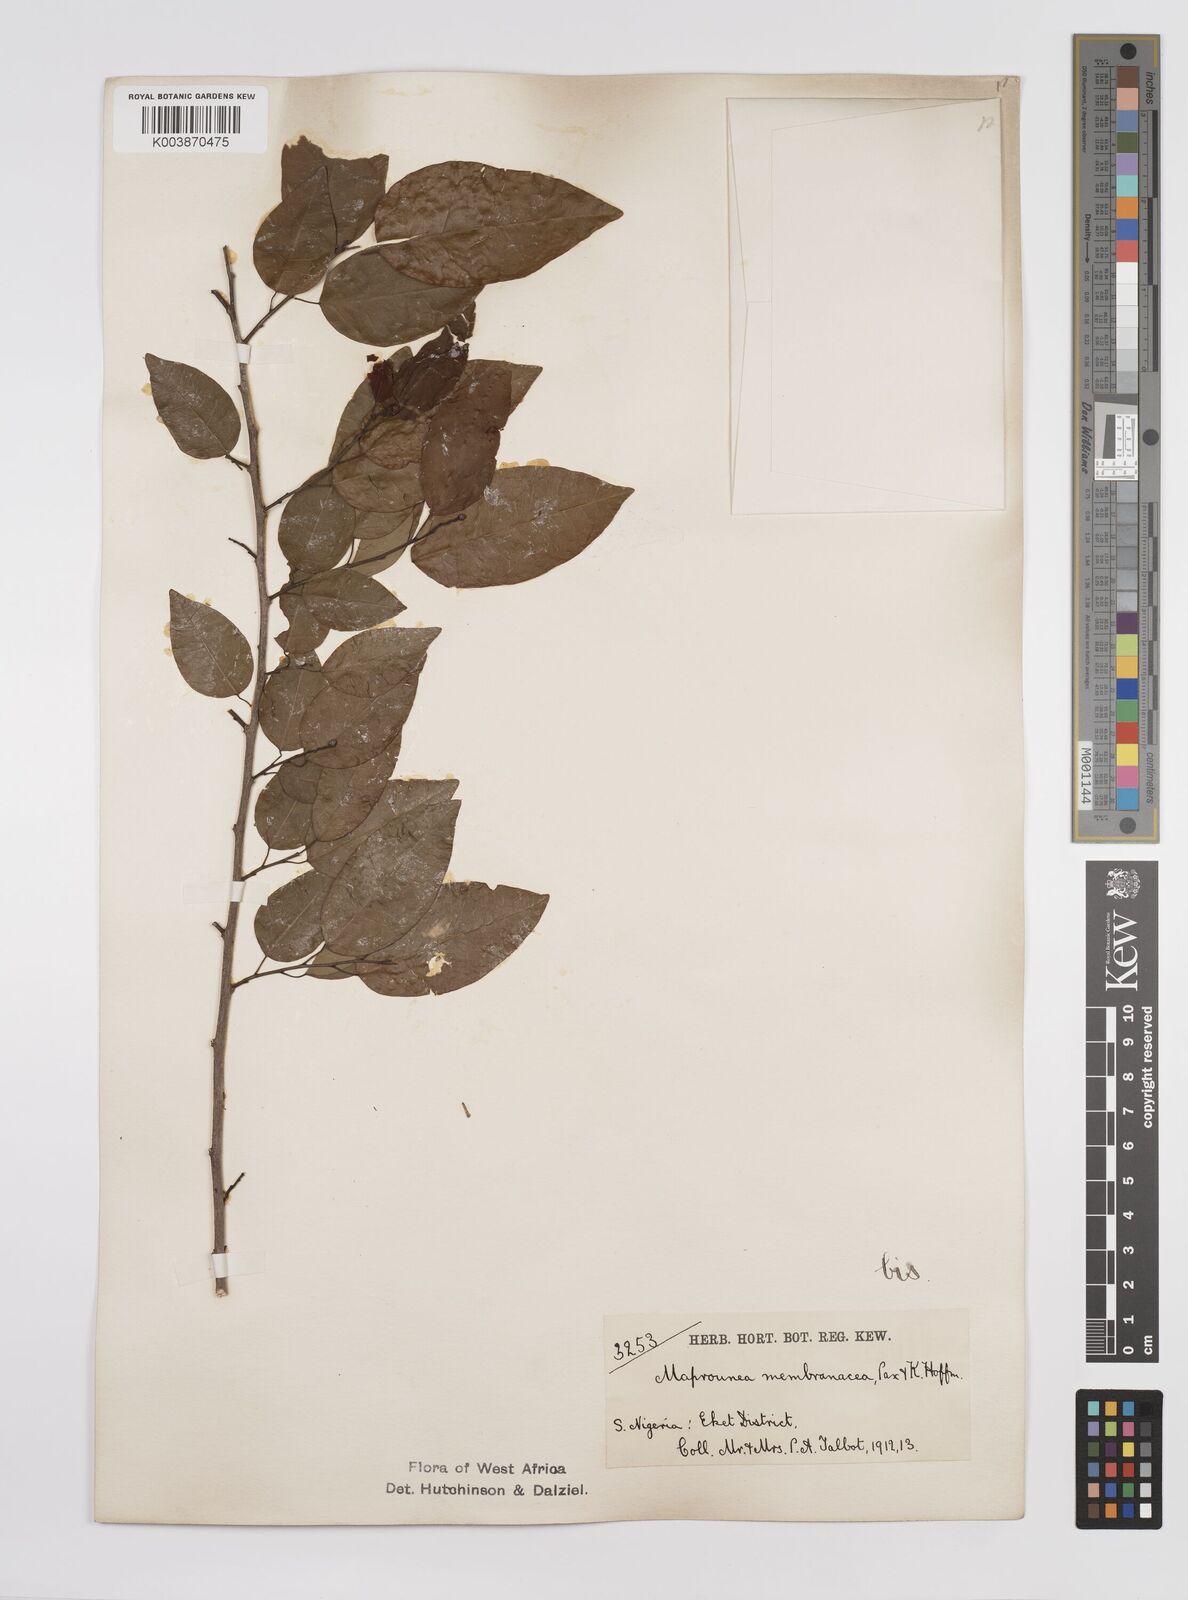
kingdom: Plantae
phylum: Tracheophyta
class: Magnoliopsida
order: Malpighiales
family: Euphorbiaceae
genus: Maprounea
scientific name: Maprounea membranacea
